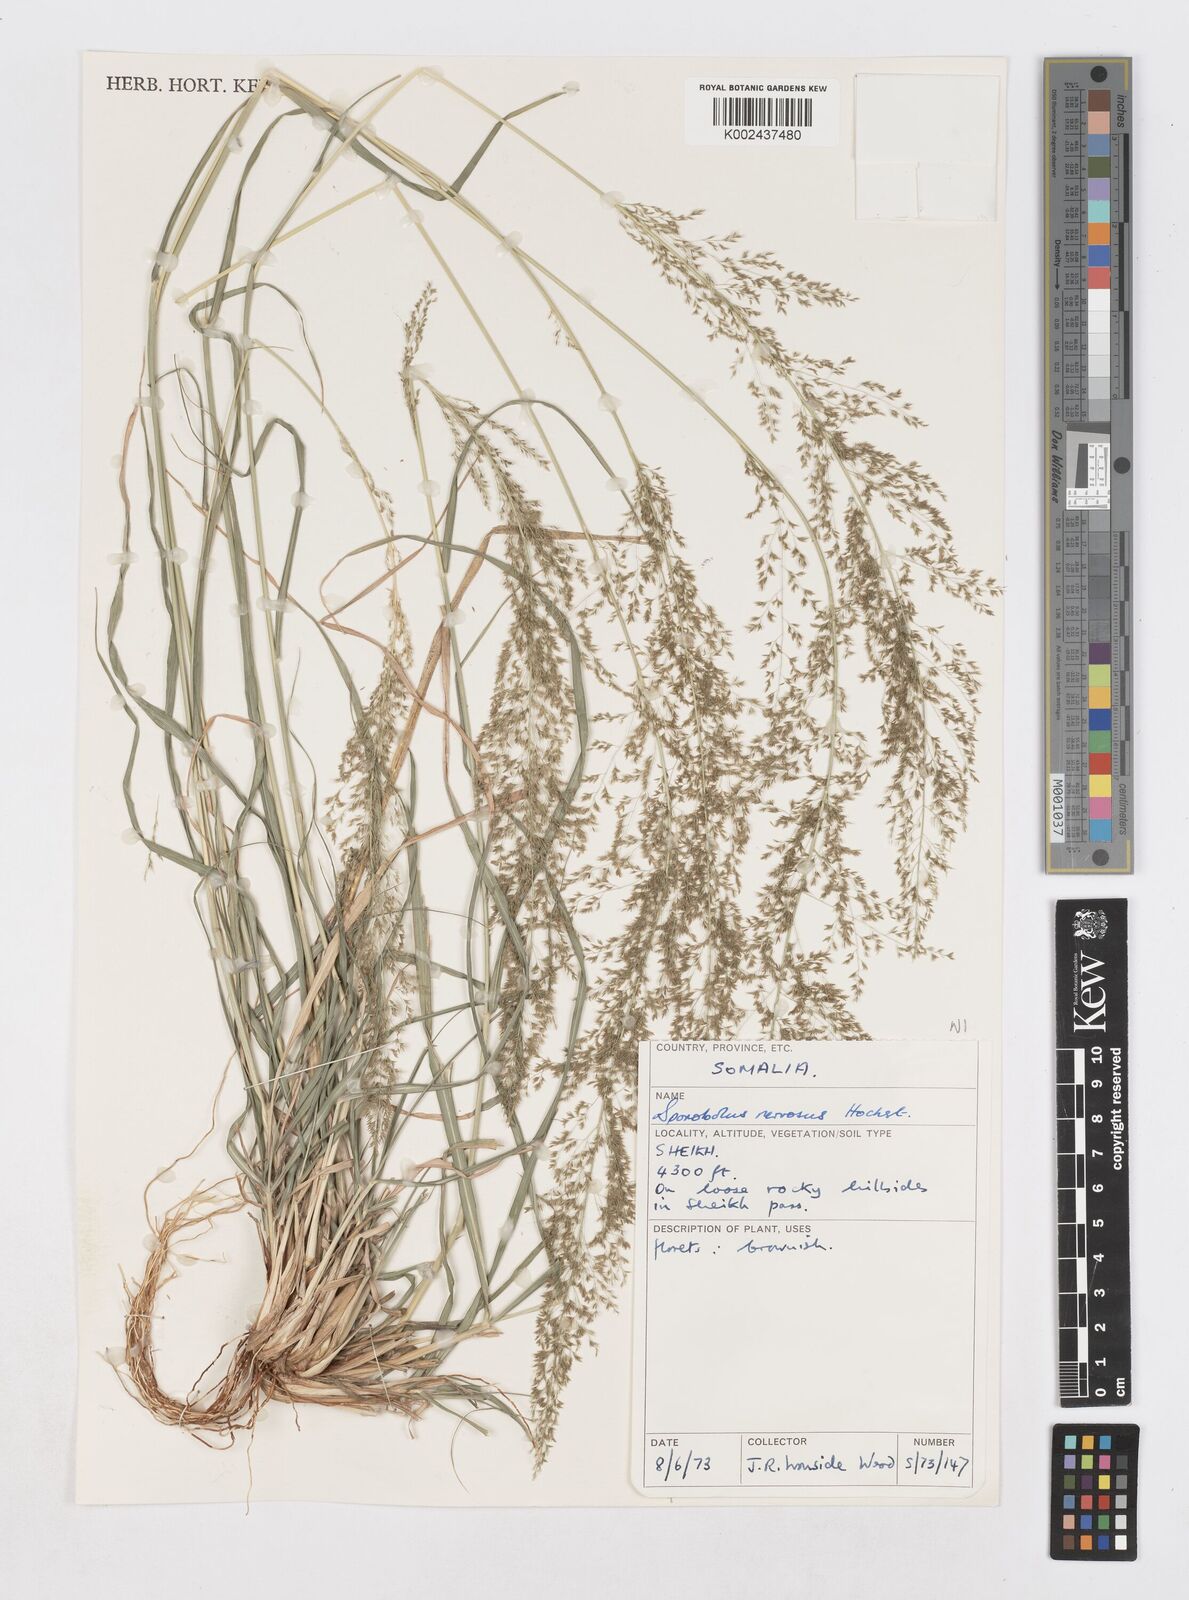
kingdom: Plantae
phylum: Tracheophyta
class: Liliopsida
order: Poales
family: Poaceae
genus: Sporobolus
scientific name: Sporobolus nervosus
